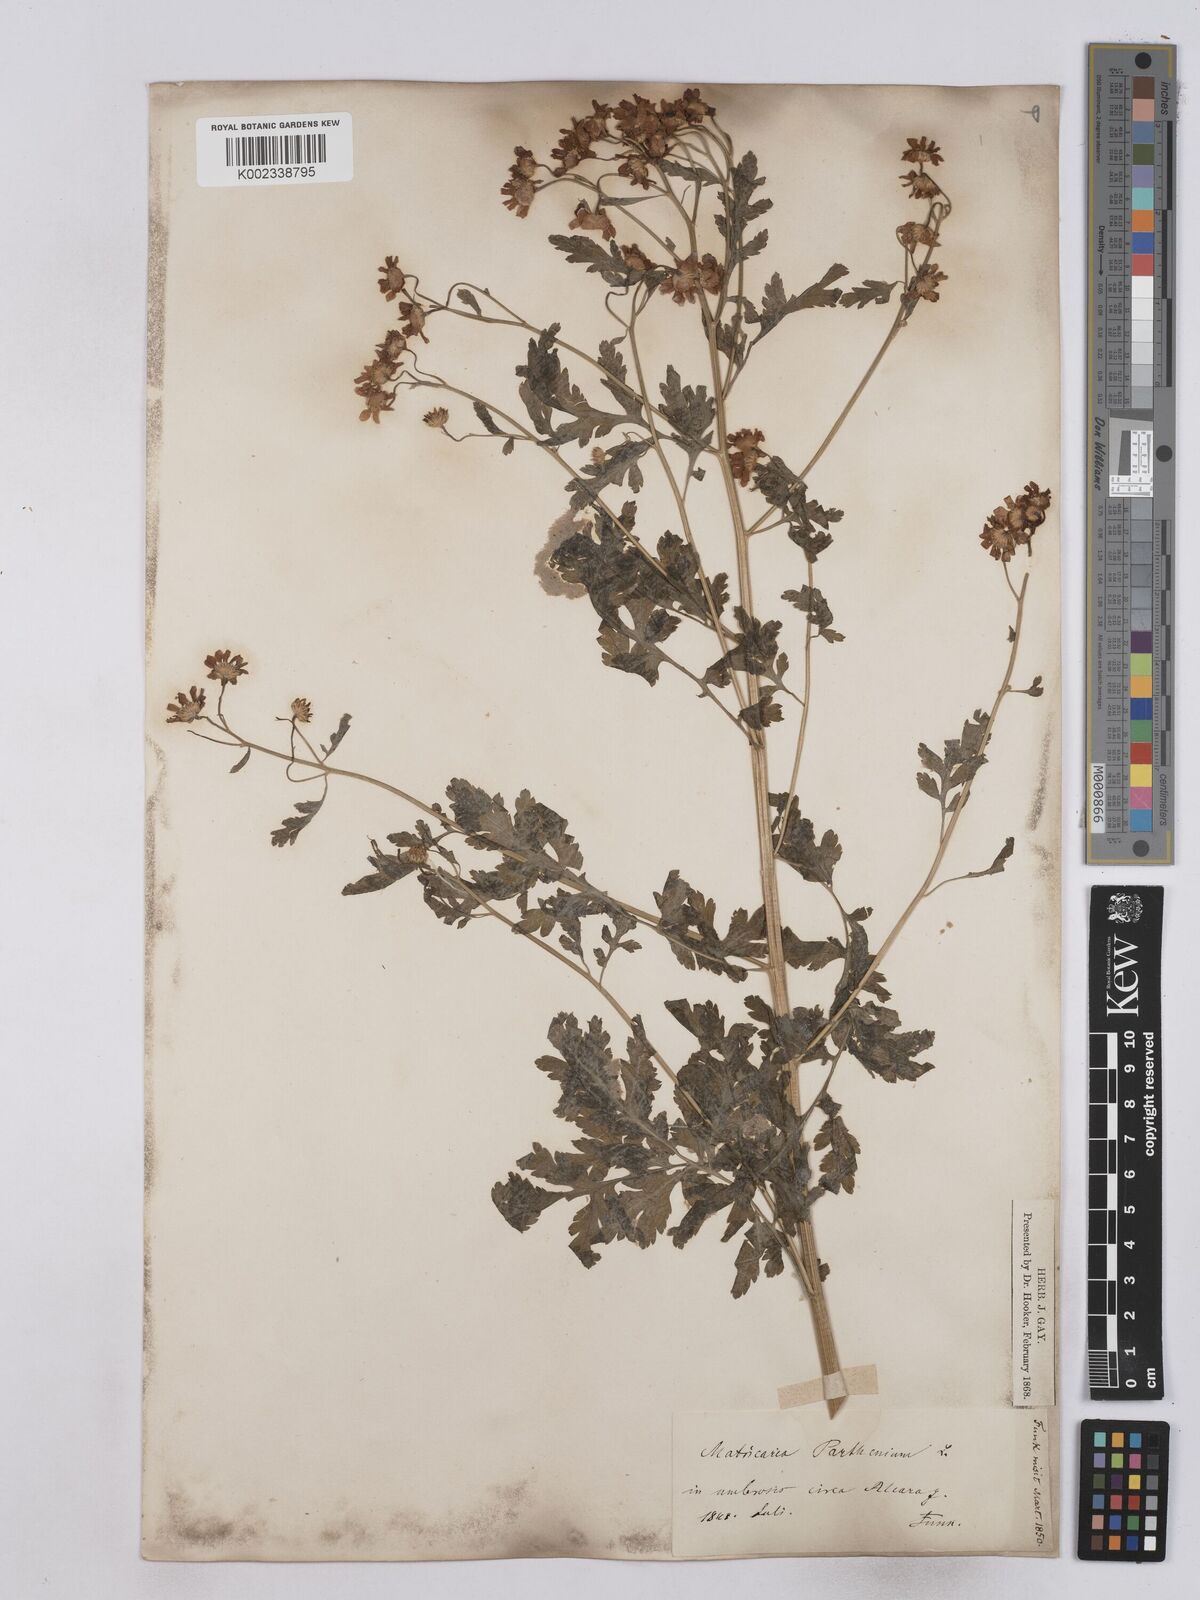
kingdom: Plantae
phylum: Tracheophyta
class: Magnoliopsida
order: Asterales
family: Asteraceae
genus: Tanacetum
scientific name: Tanacetum parthenium
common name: Feverfew
